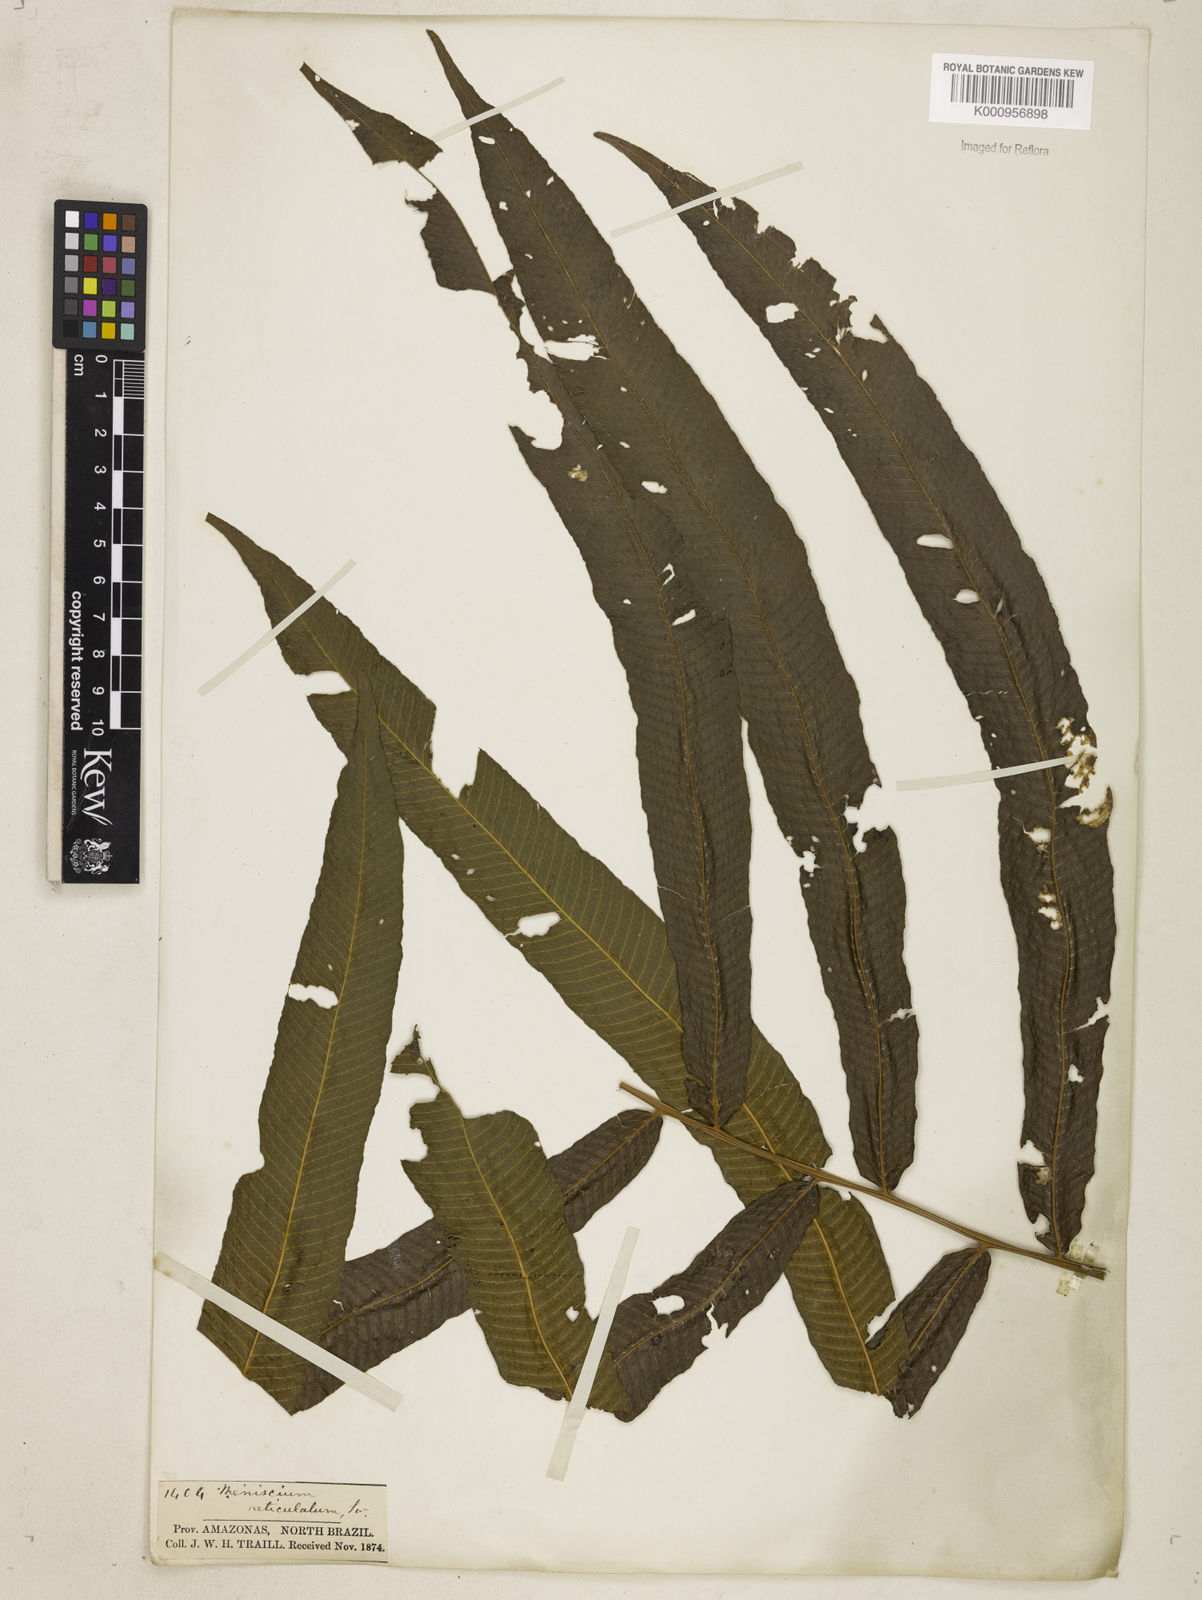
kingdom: Plantae
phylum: Tracheophyta
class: Polypodiopsida
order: Polypodiales
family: Thelypteridaceae
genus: Meniscium
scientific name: Meniscium
